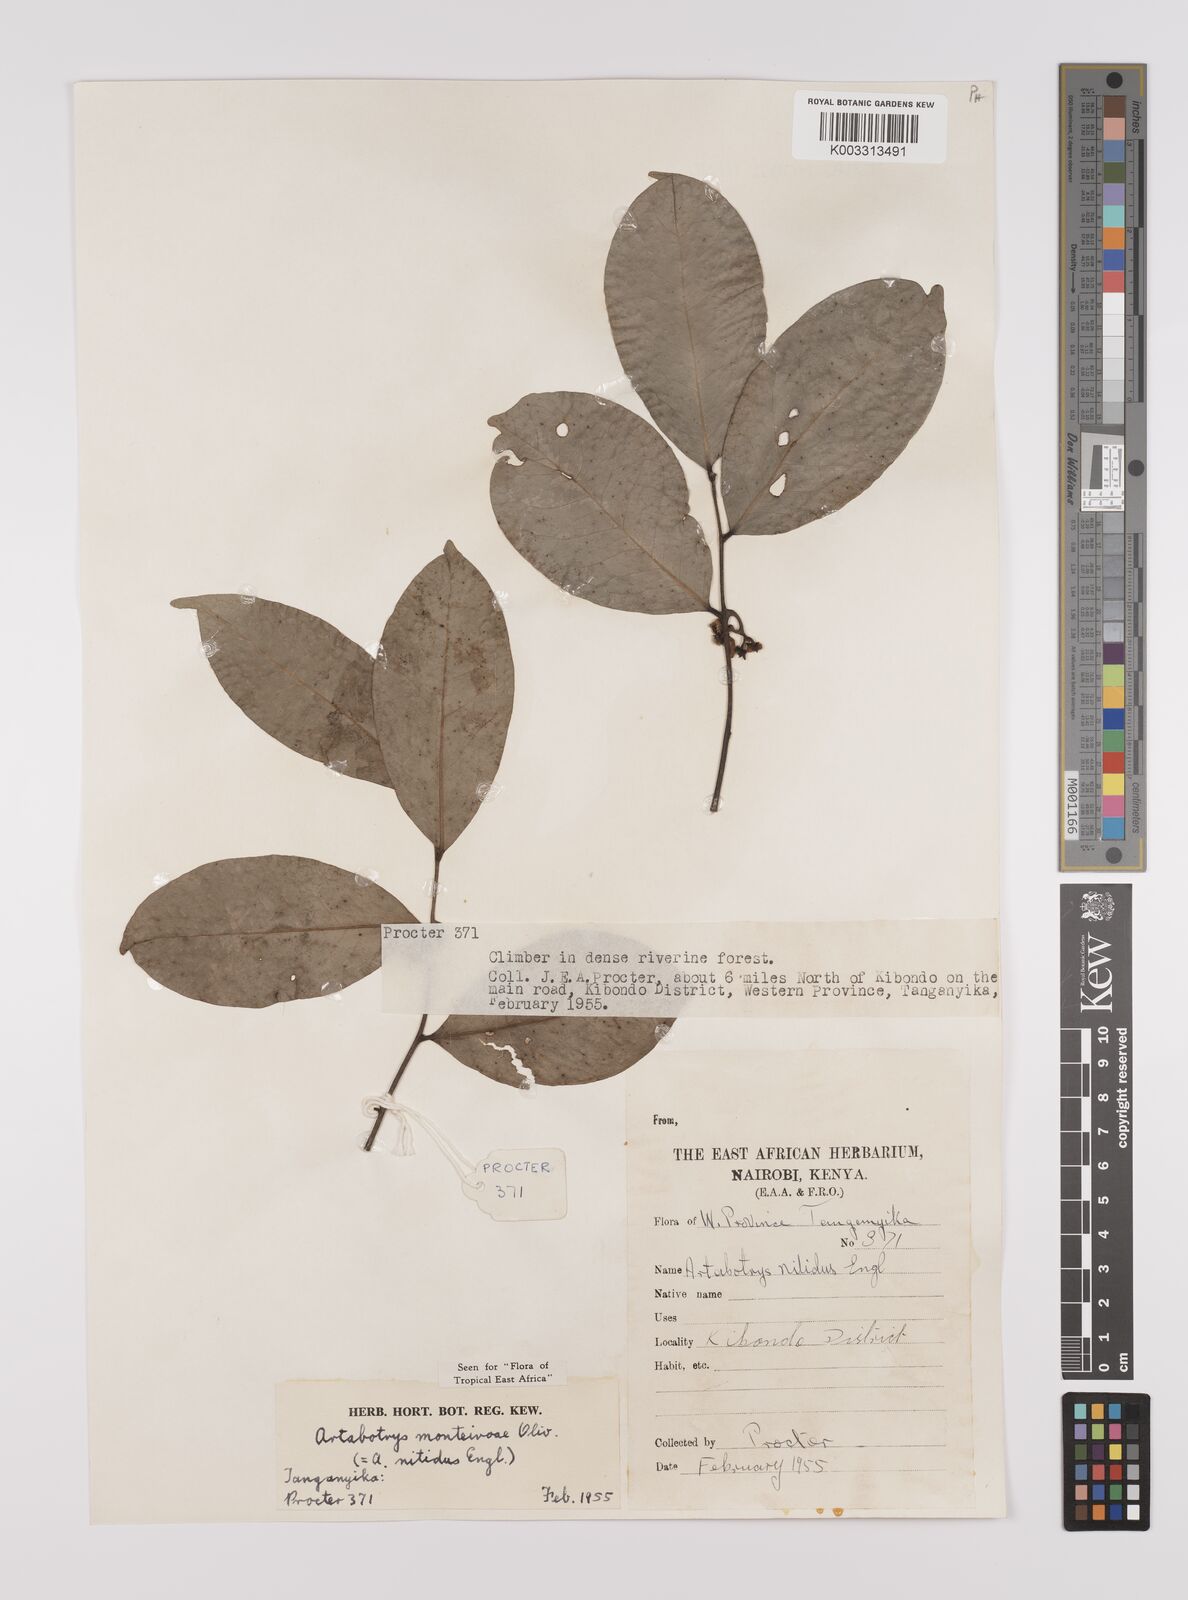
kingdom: Plantae
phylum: Tracheophyta
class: Magnoliopsida
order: Magnoliales
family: Annonaceae
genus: Artabotrys
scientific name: Artabotrys monteiroae
